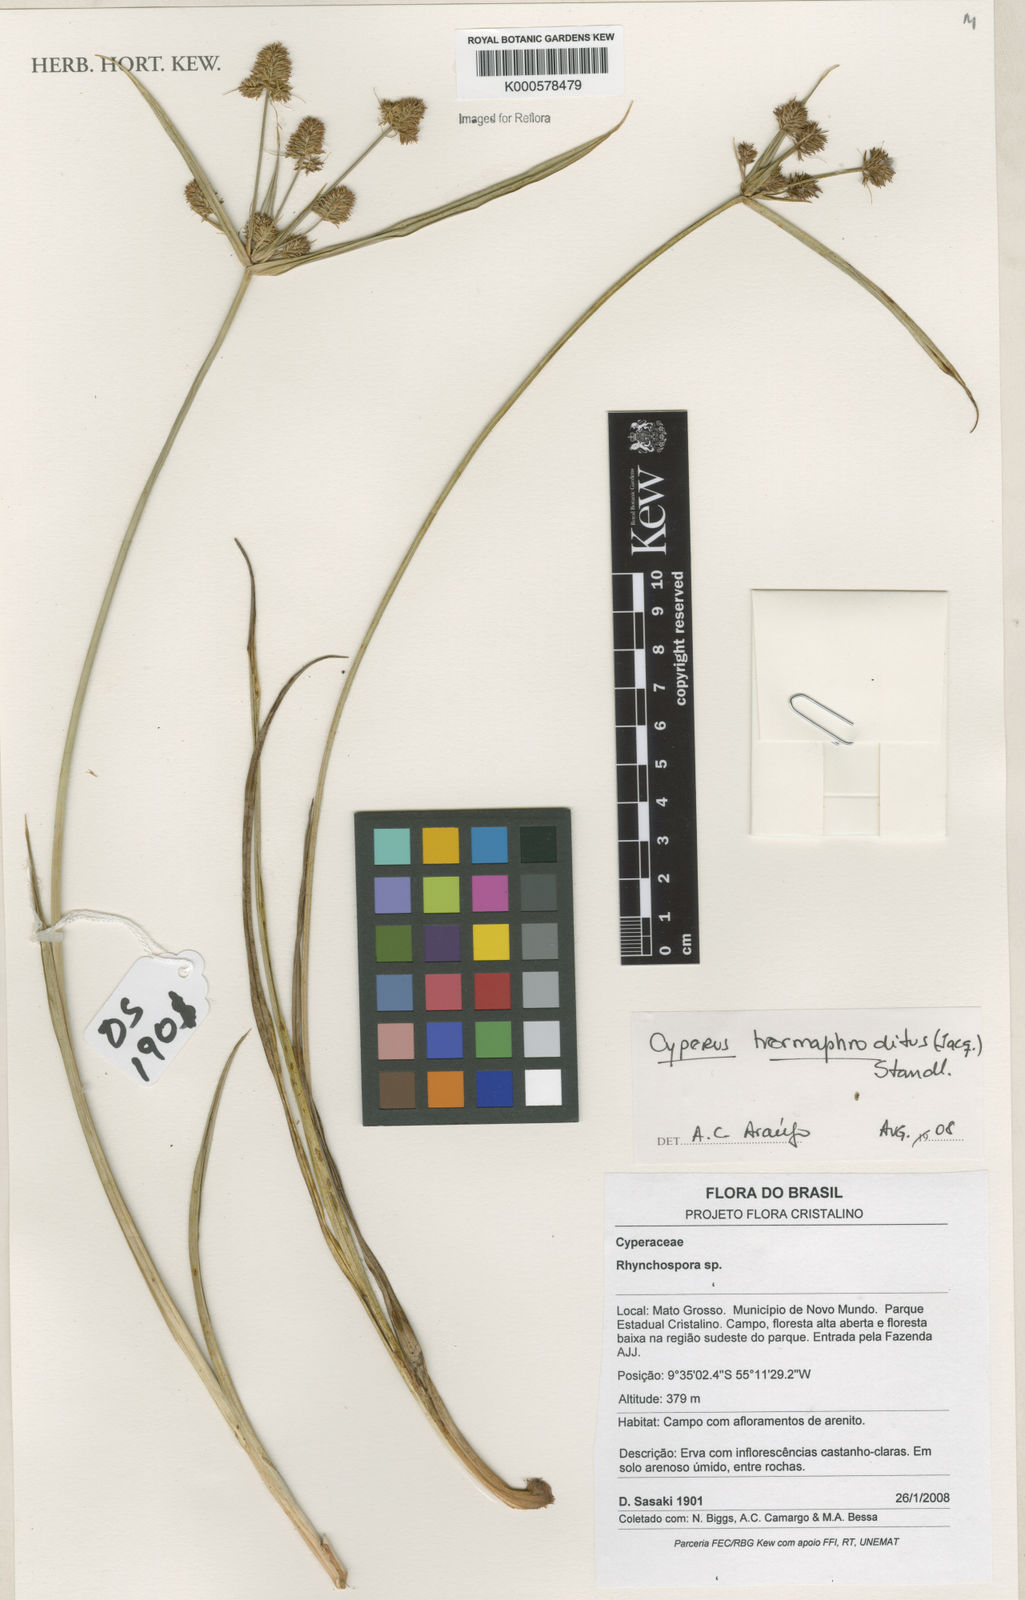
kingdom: Plantae
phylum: Tracheophyta
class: Liliopsida
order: Poales
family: Cyperaceae
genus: Cyperus
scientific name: Cyperus hermaphroditus
